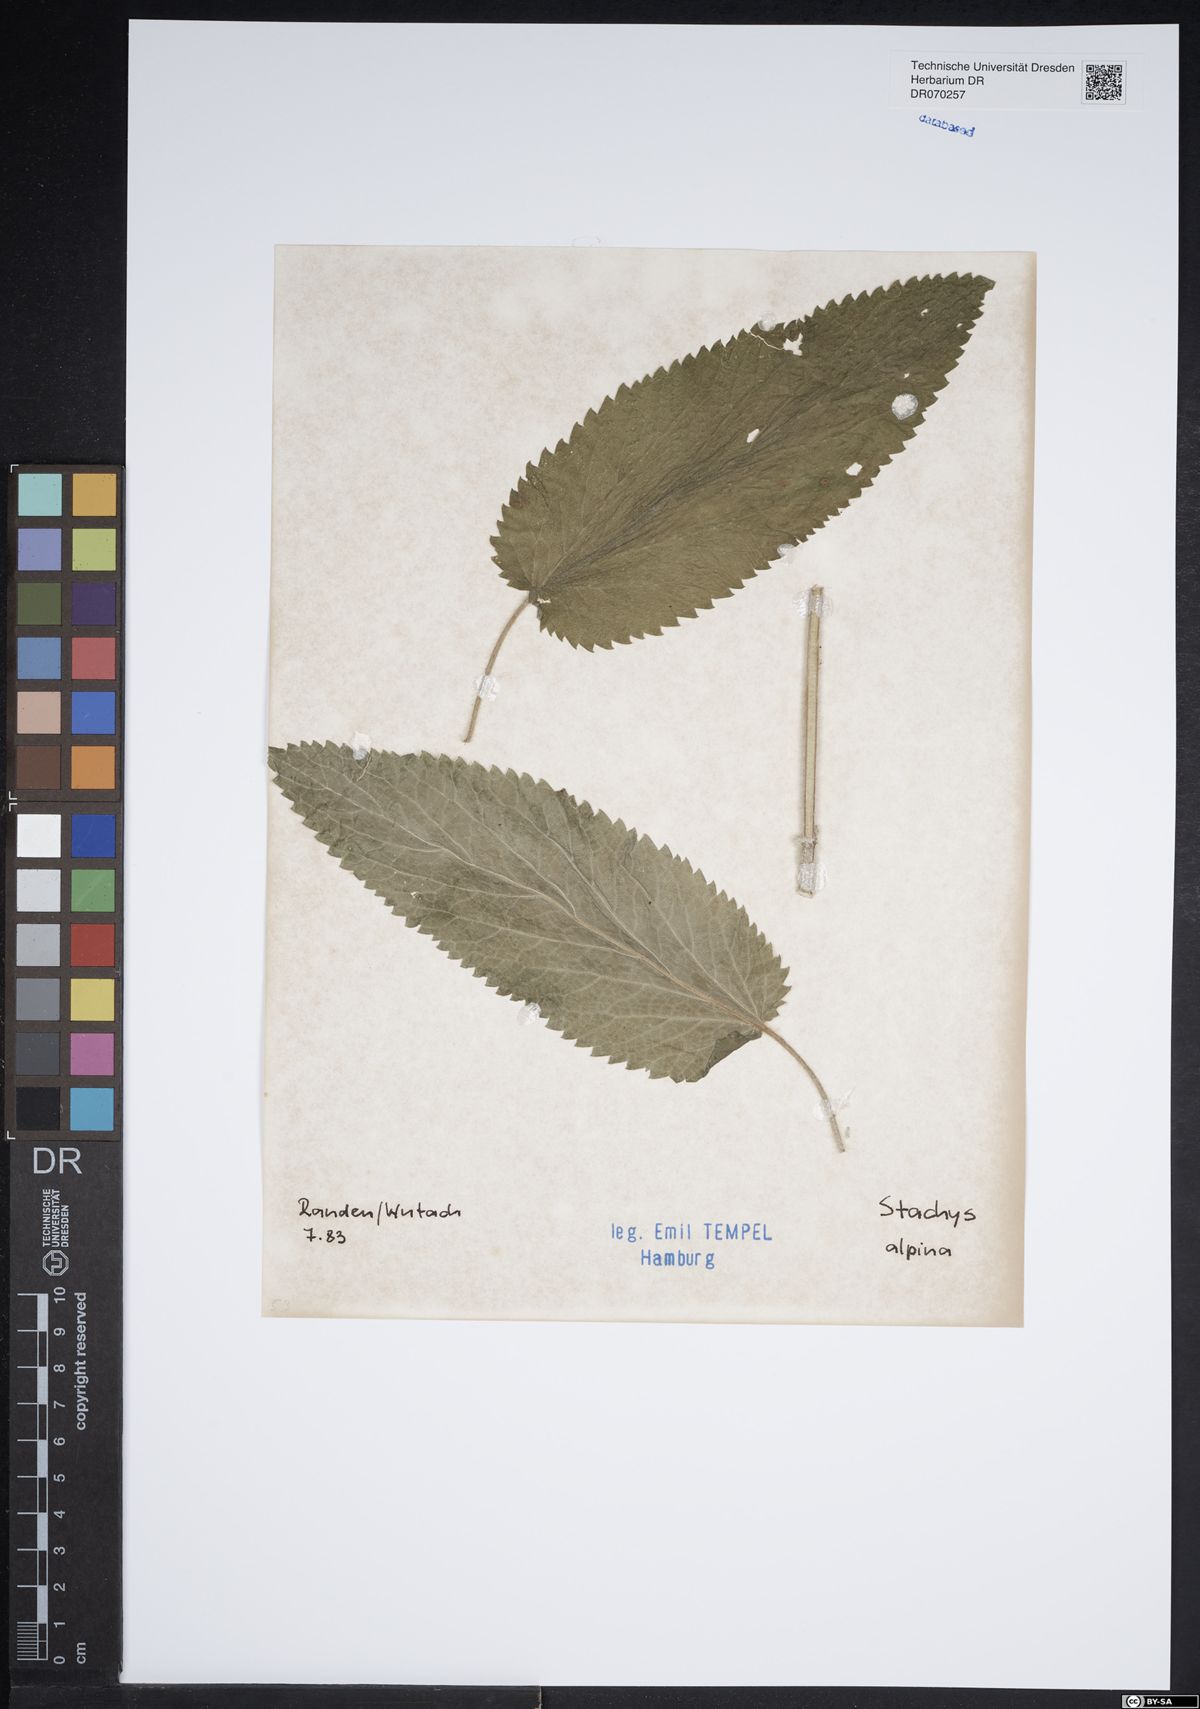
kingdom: Plantae
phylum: Tracheophyta
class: Magnoliopsida
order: Lamiales
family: Lamiaceae
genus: Stachys
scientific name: Stachys alpina
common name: Limestone woundwort
